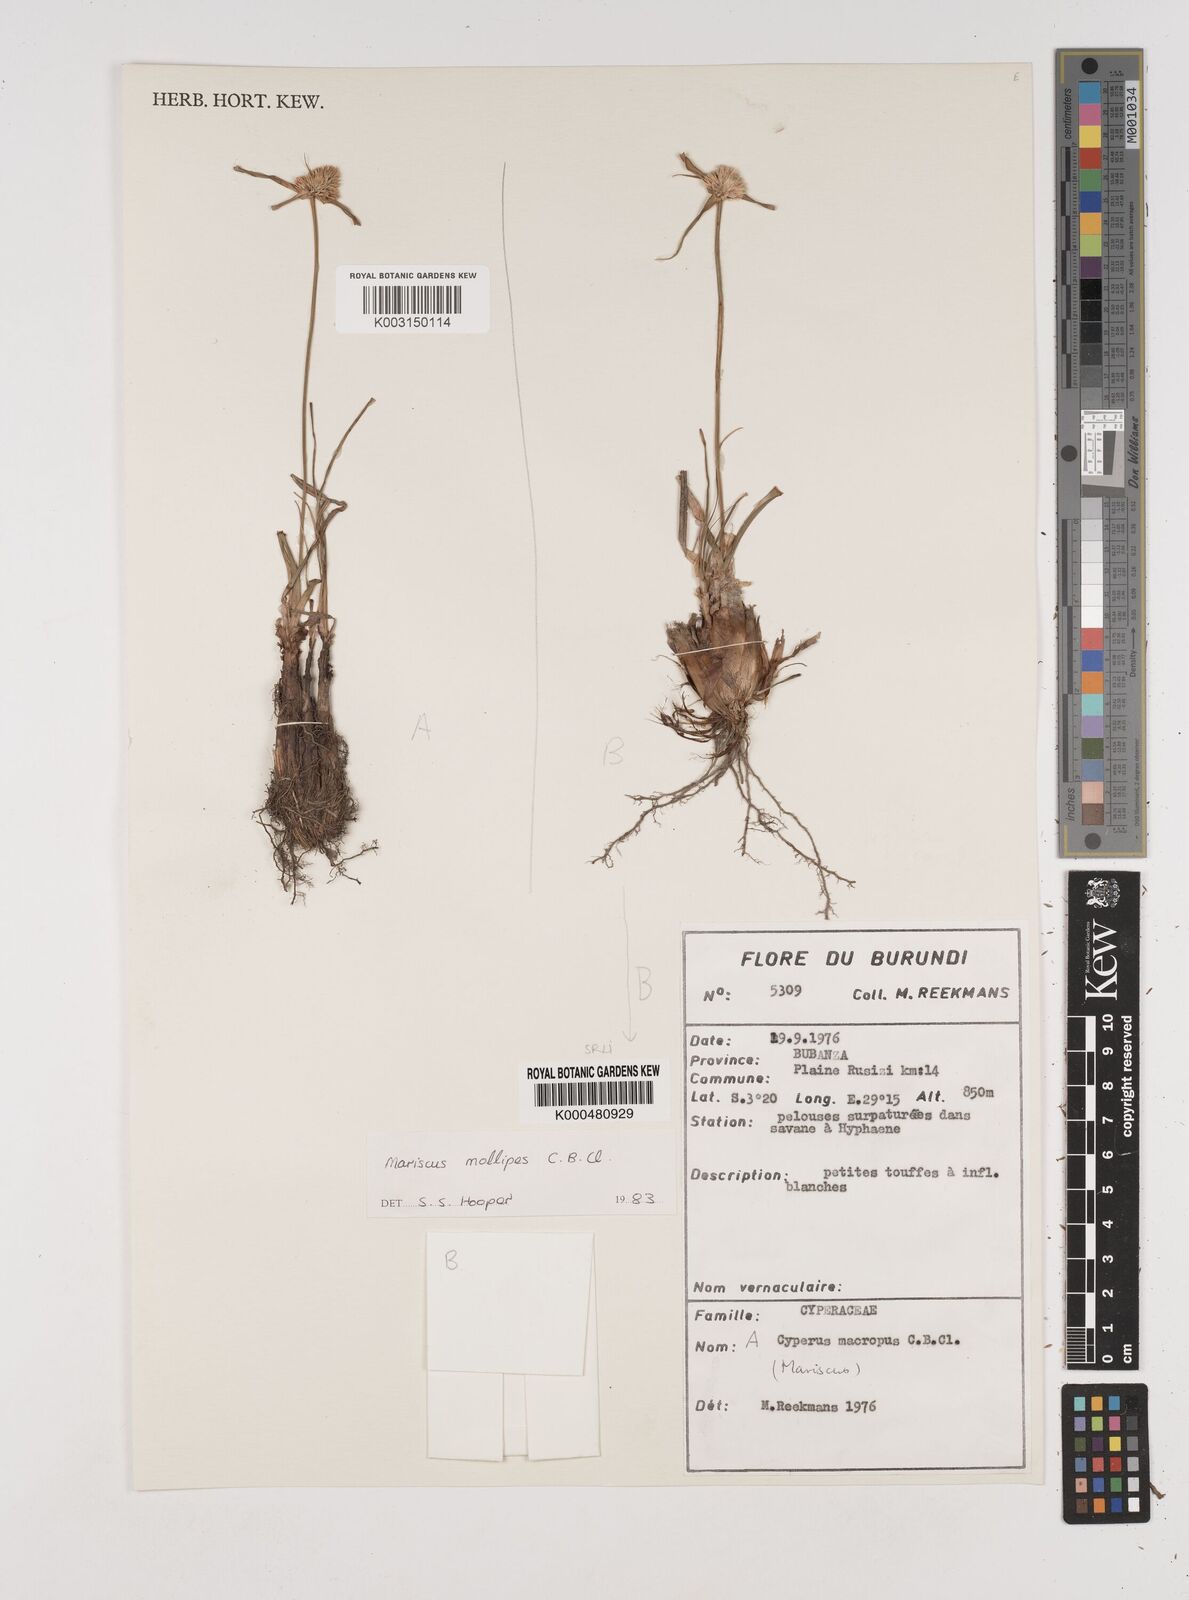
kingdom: Plantae
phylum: Tracheophyta
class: Liliopsida
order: Poales
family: Cyperaceae
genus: Cyperus
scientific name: Cyperus mollipes
